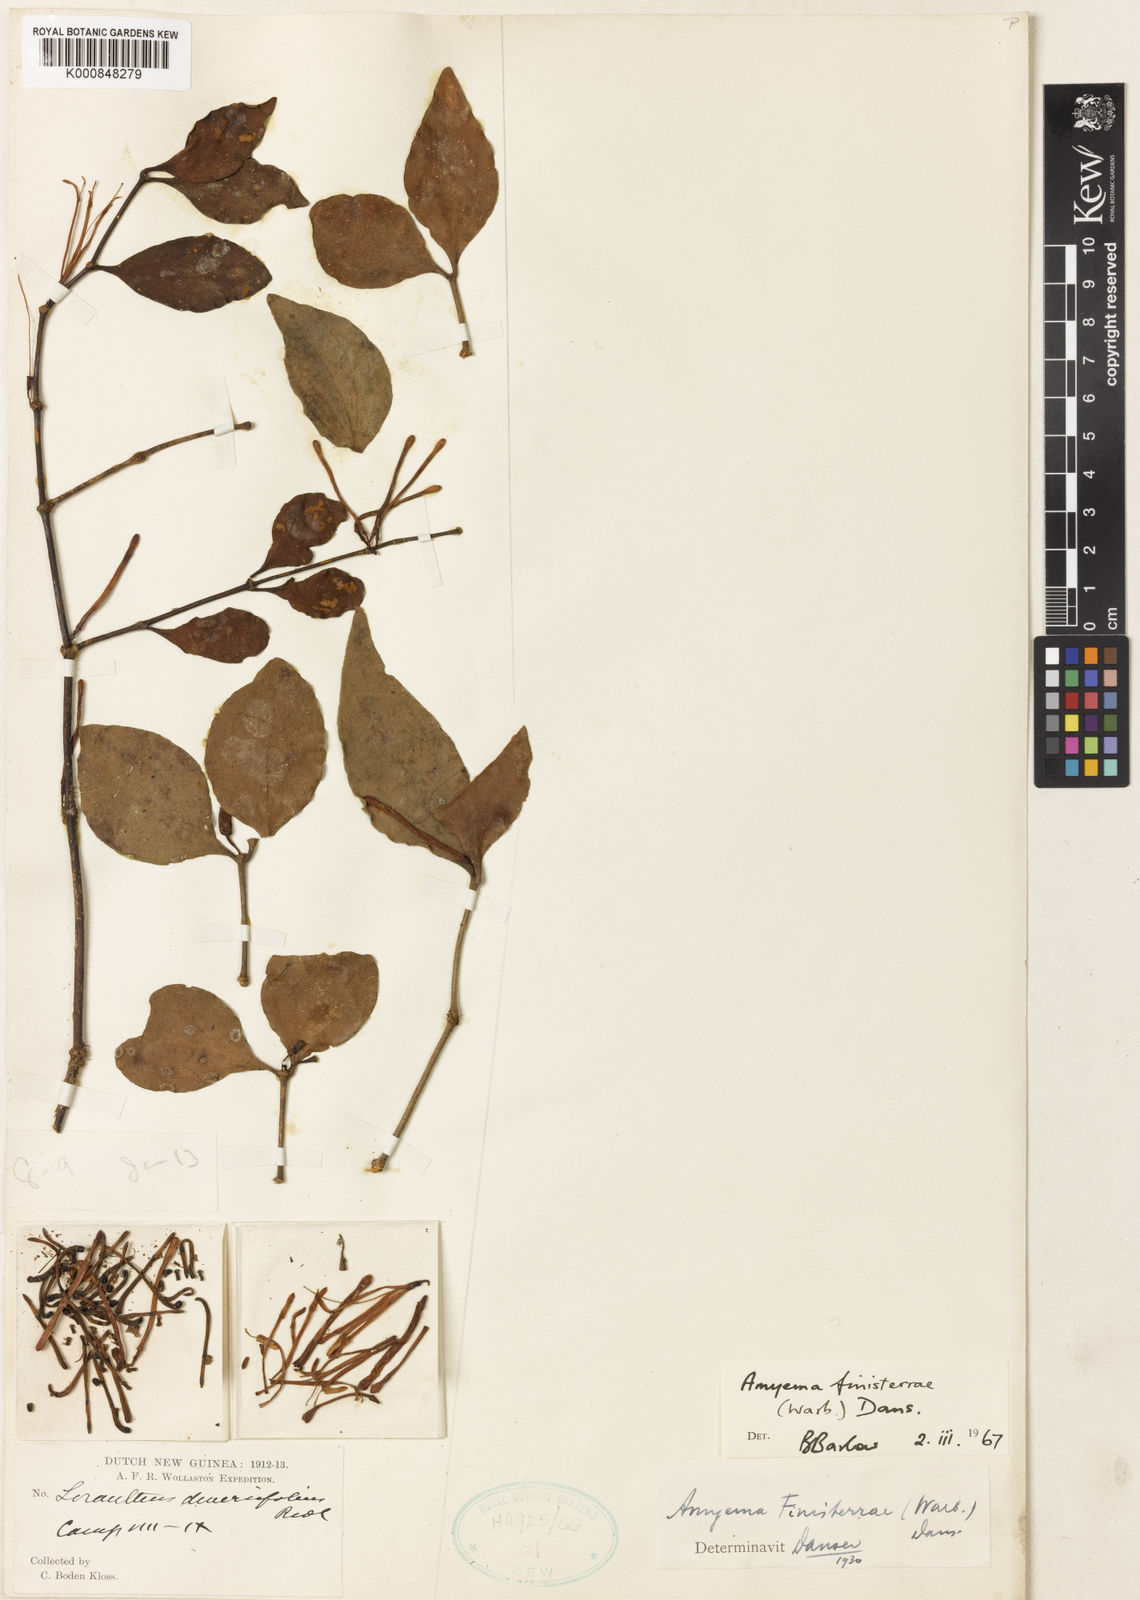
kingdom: Plantae
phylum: Tracheophyta
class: Magnoliopsida
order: Santalales
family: Loranthaceae
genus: Amyema
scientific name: Amyema finisterrae
